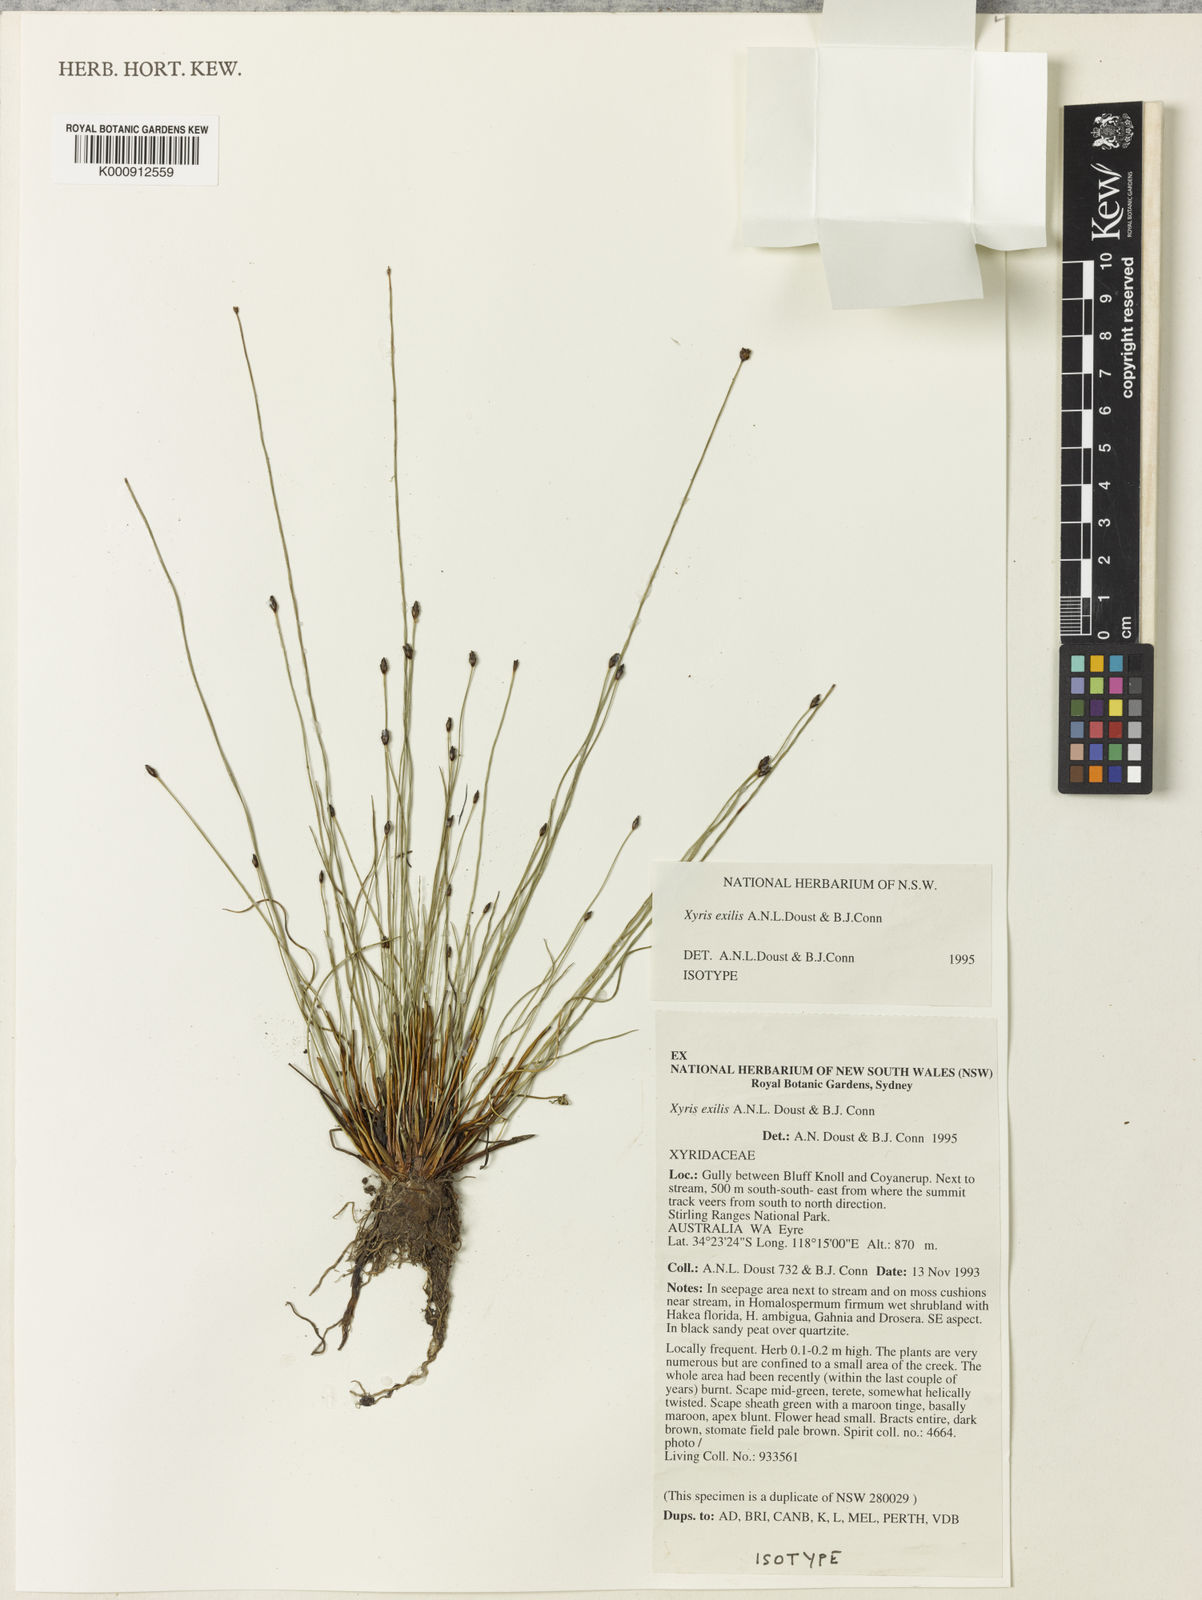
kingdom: Plantae
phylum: Tracheophyta
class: Liliopsida
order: Poales
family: Xyridaceae
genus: Xyris
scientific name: Xyris exilis
